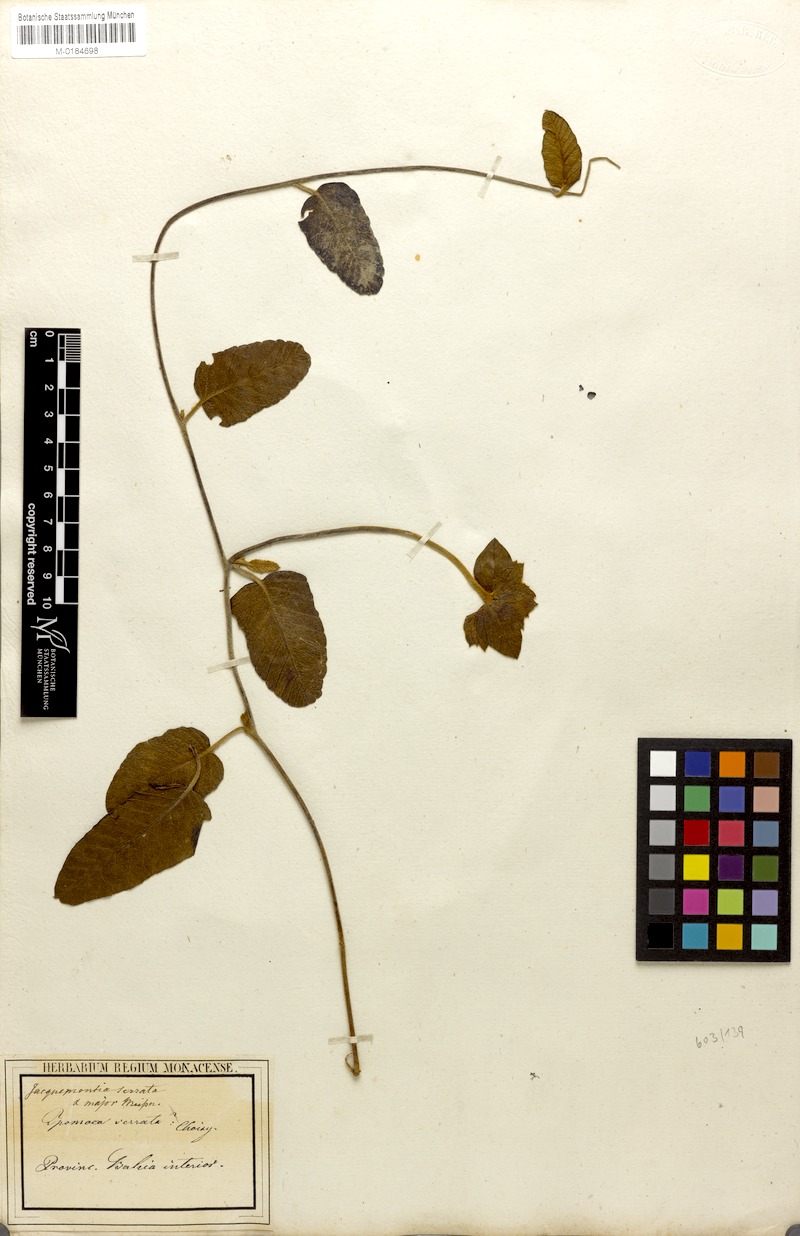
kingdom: Plantae
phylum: Tracheophyta
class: Magnoliopsida
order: Solanales
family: Convolvulaceae
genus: Daustinia
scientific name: Daustinia montana
